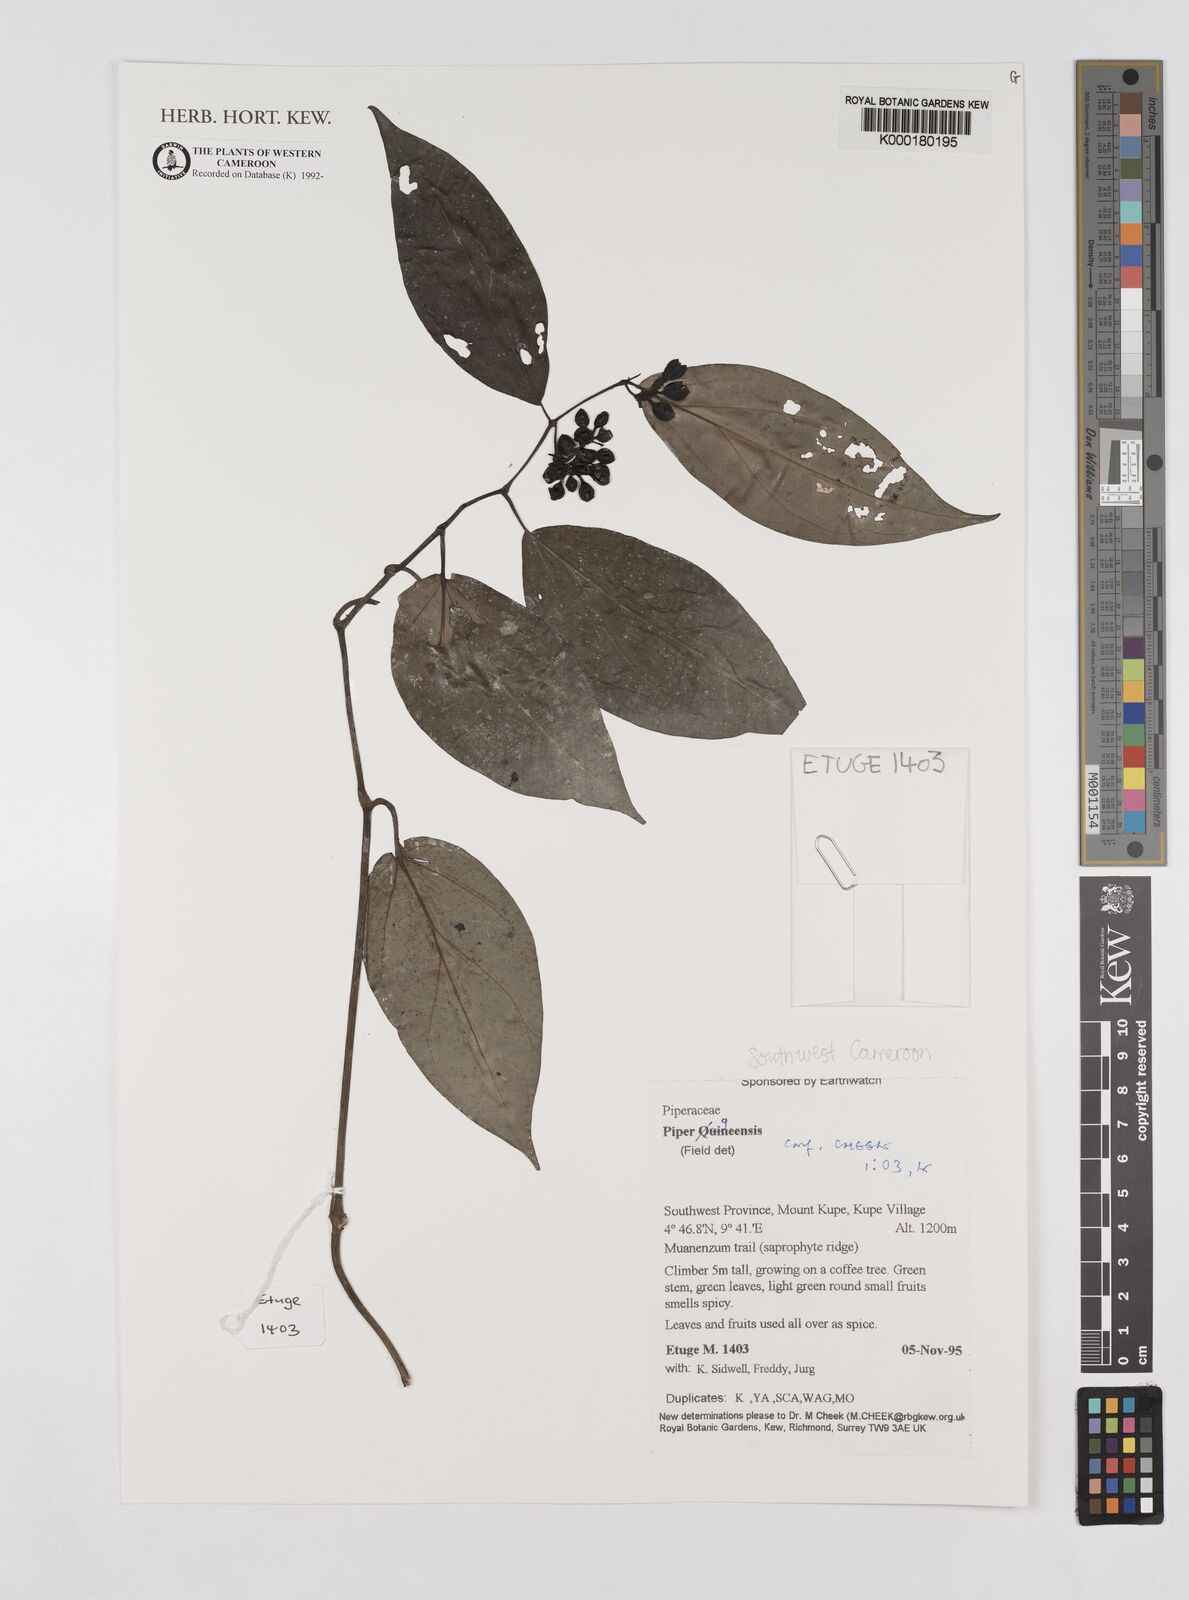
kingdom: Plantae
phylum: Tracheophyta
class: Magnoliopsida
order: Piperales
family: Piperaceae
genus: Piper
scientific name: Piper guineense
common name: Benin pepper
